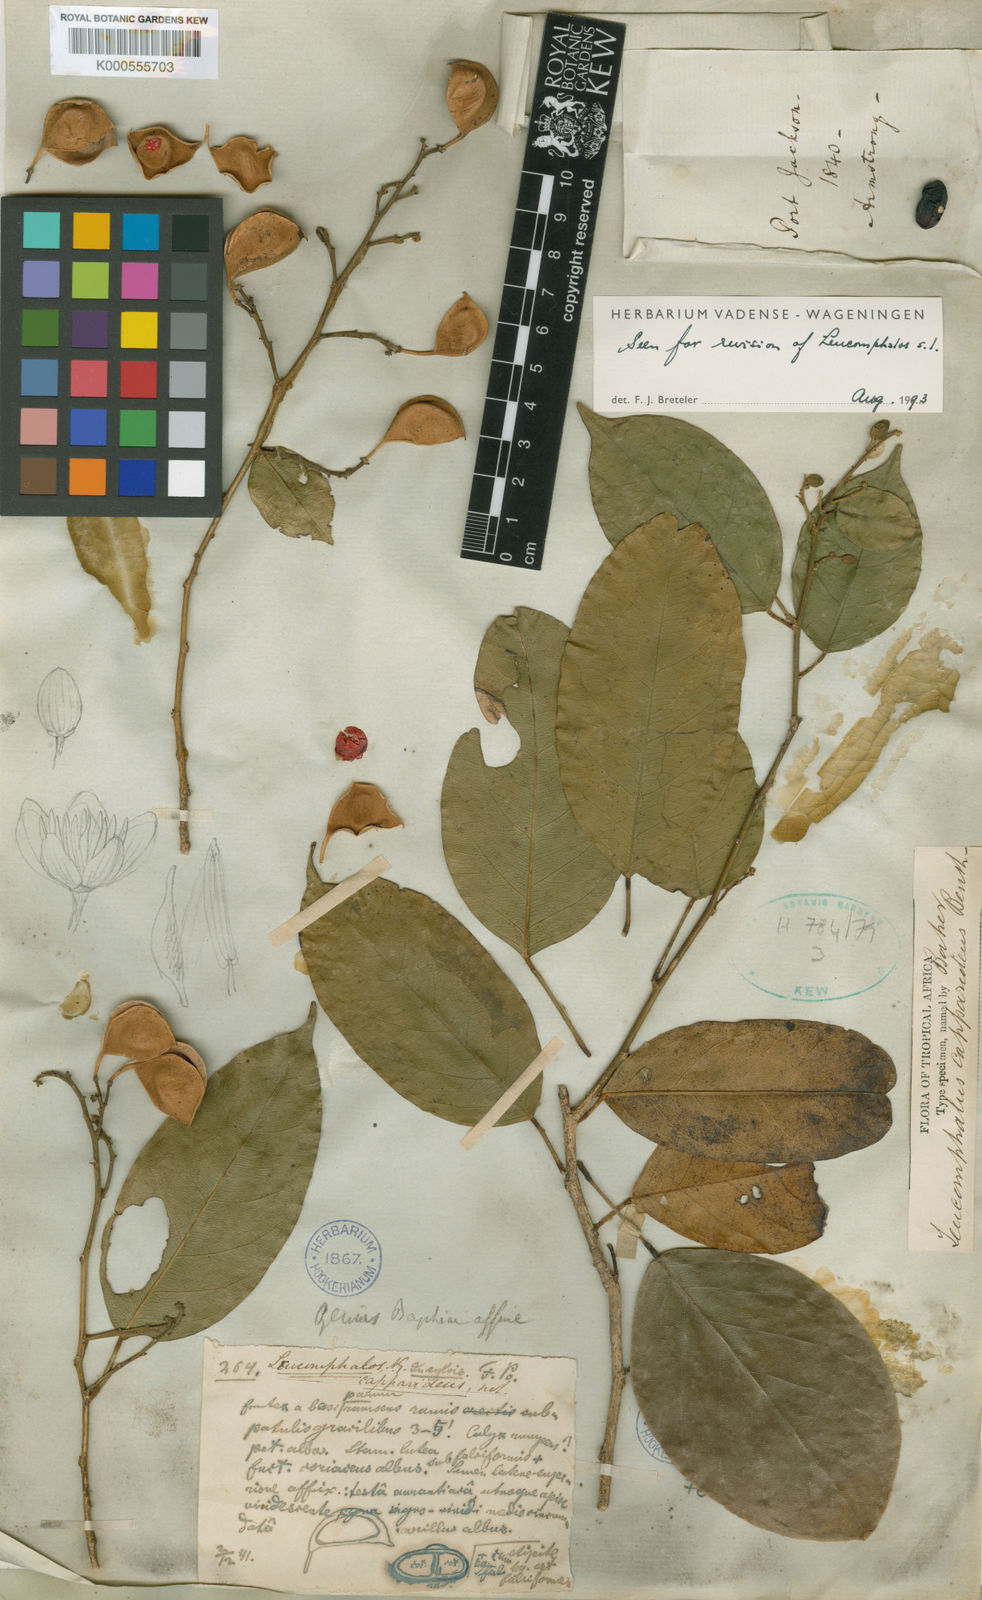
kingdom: Plantae
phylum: Tracheophyta
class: Magnoliopsida
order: Fabales
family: Fabaceae
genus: Leucomphalos
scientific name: Leucomphalos
